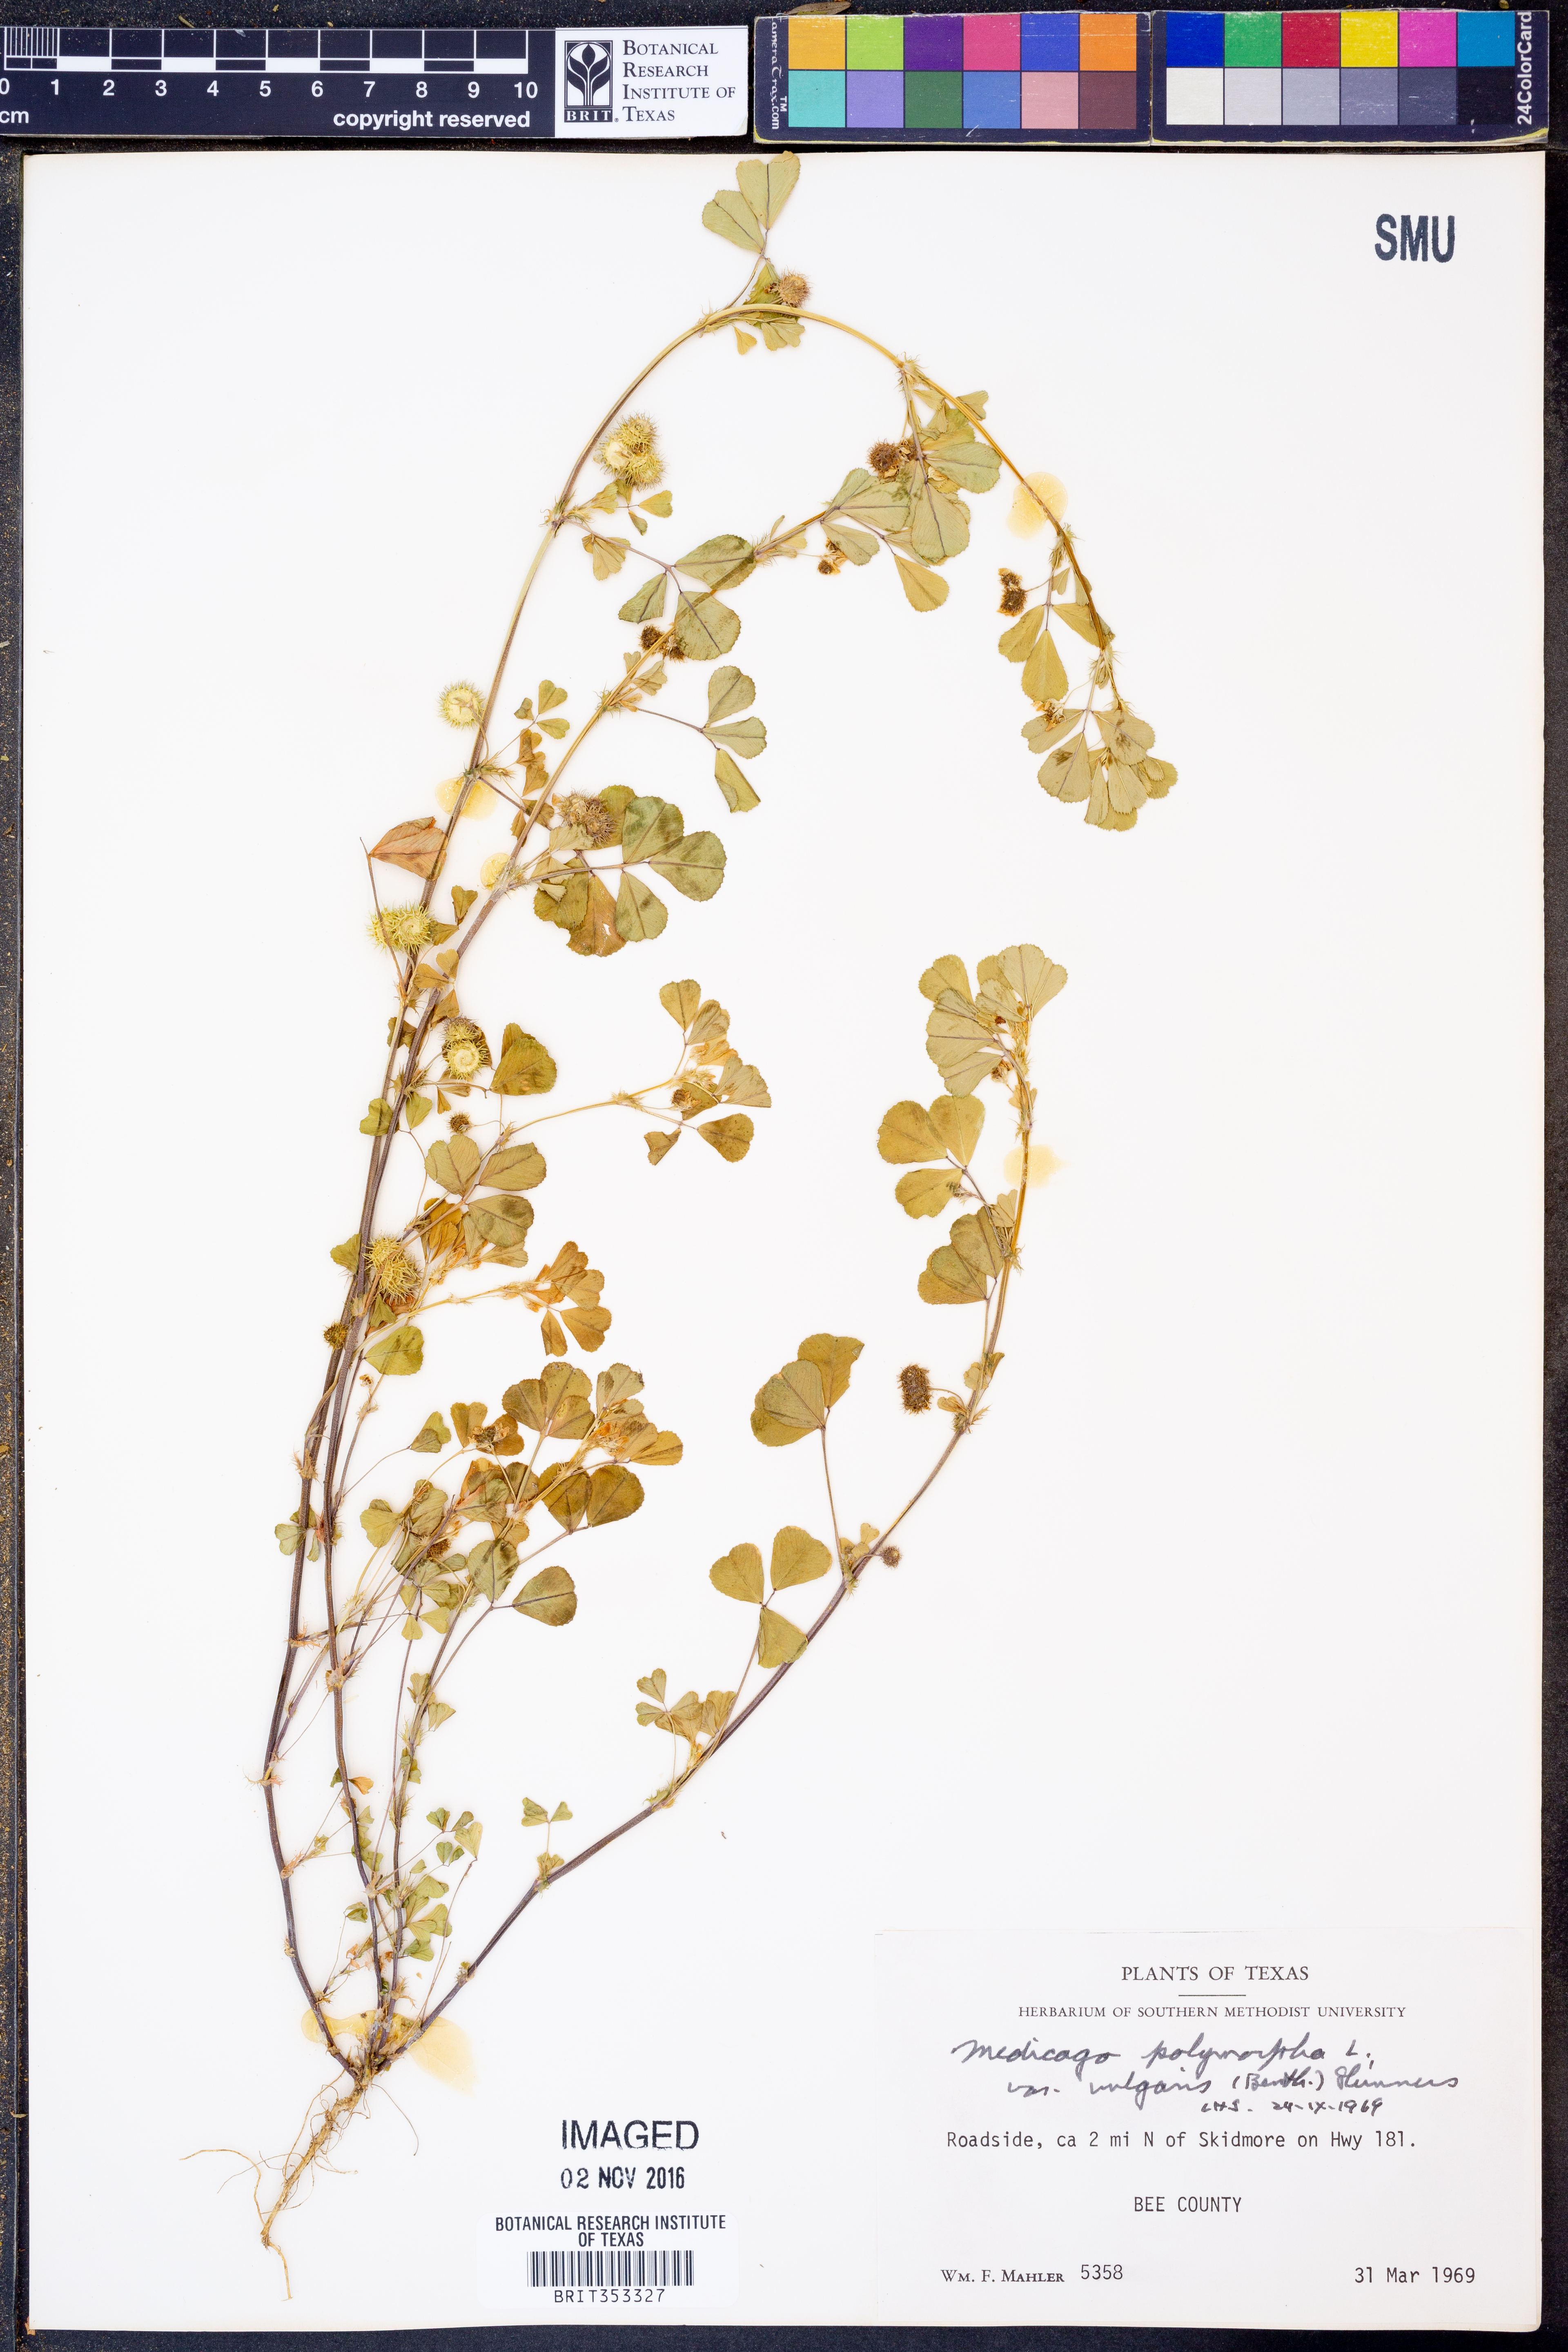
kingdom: Plantae
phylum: Tracheophyta
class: Magnoliopsida
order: Fabales
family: Fabaceae
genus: Medicago
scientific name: Medicago polymorpha
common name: Burclover
